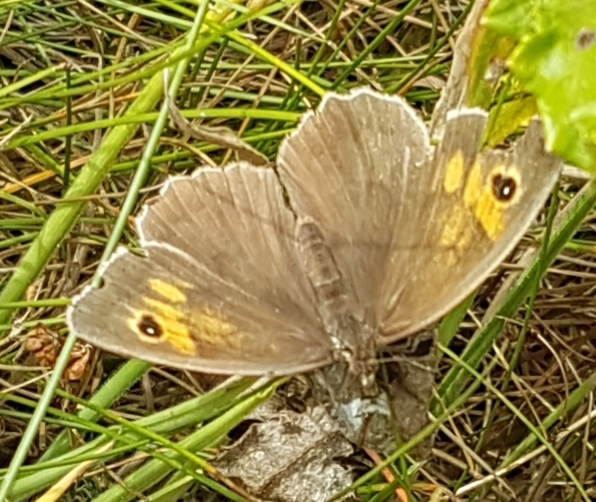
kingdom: Animalia
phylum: Arthropoda
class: Insecta
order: Lepidoptera
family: Nymphalidae
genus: Maniola
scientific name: Maniola jurtina
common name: Græsrandøje
